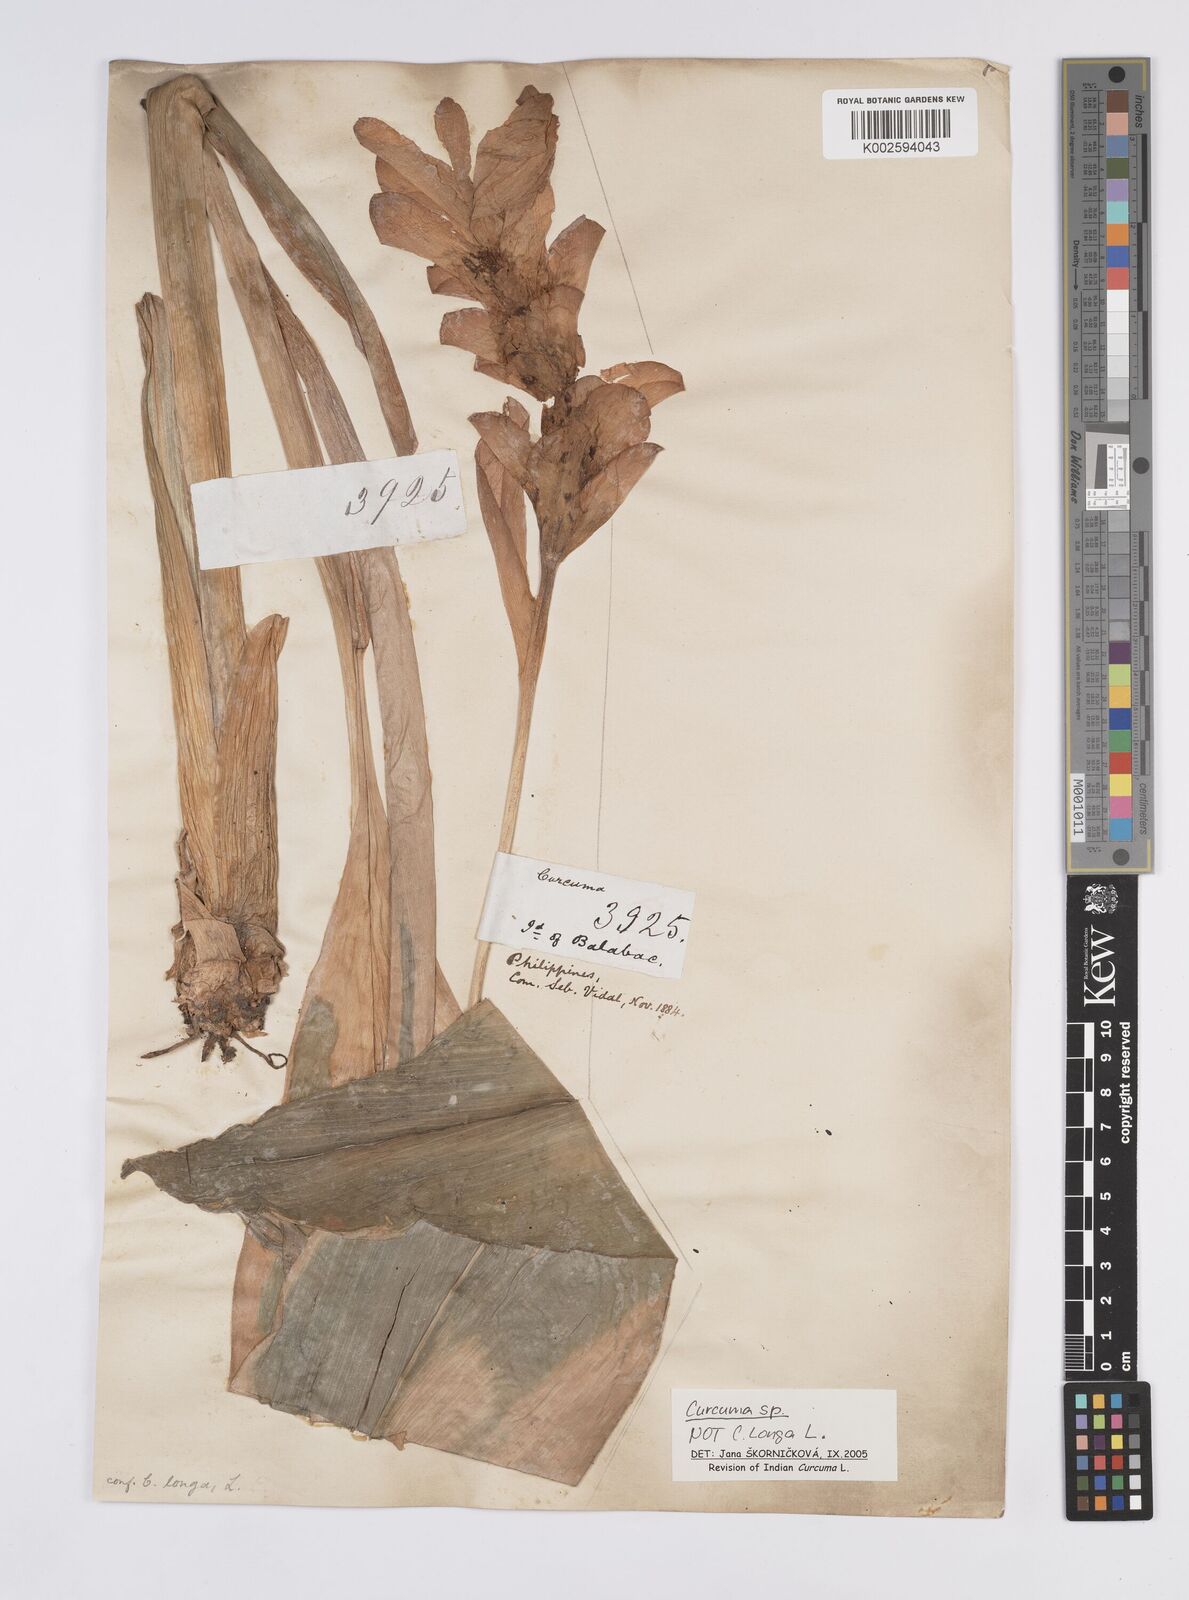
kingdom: Plantae
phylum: Tracheophyta
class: Liliopsida
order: Zingiberales
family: Zingiberaceae
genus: Curcuma
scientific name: Curcuma
